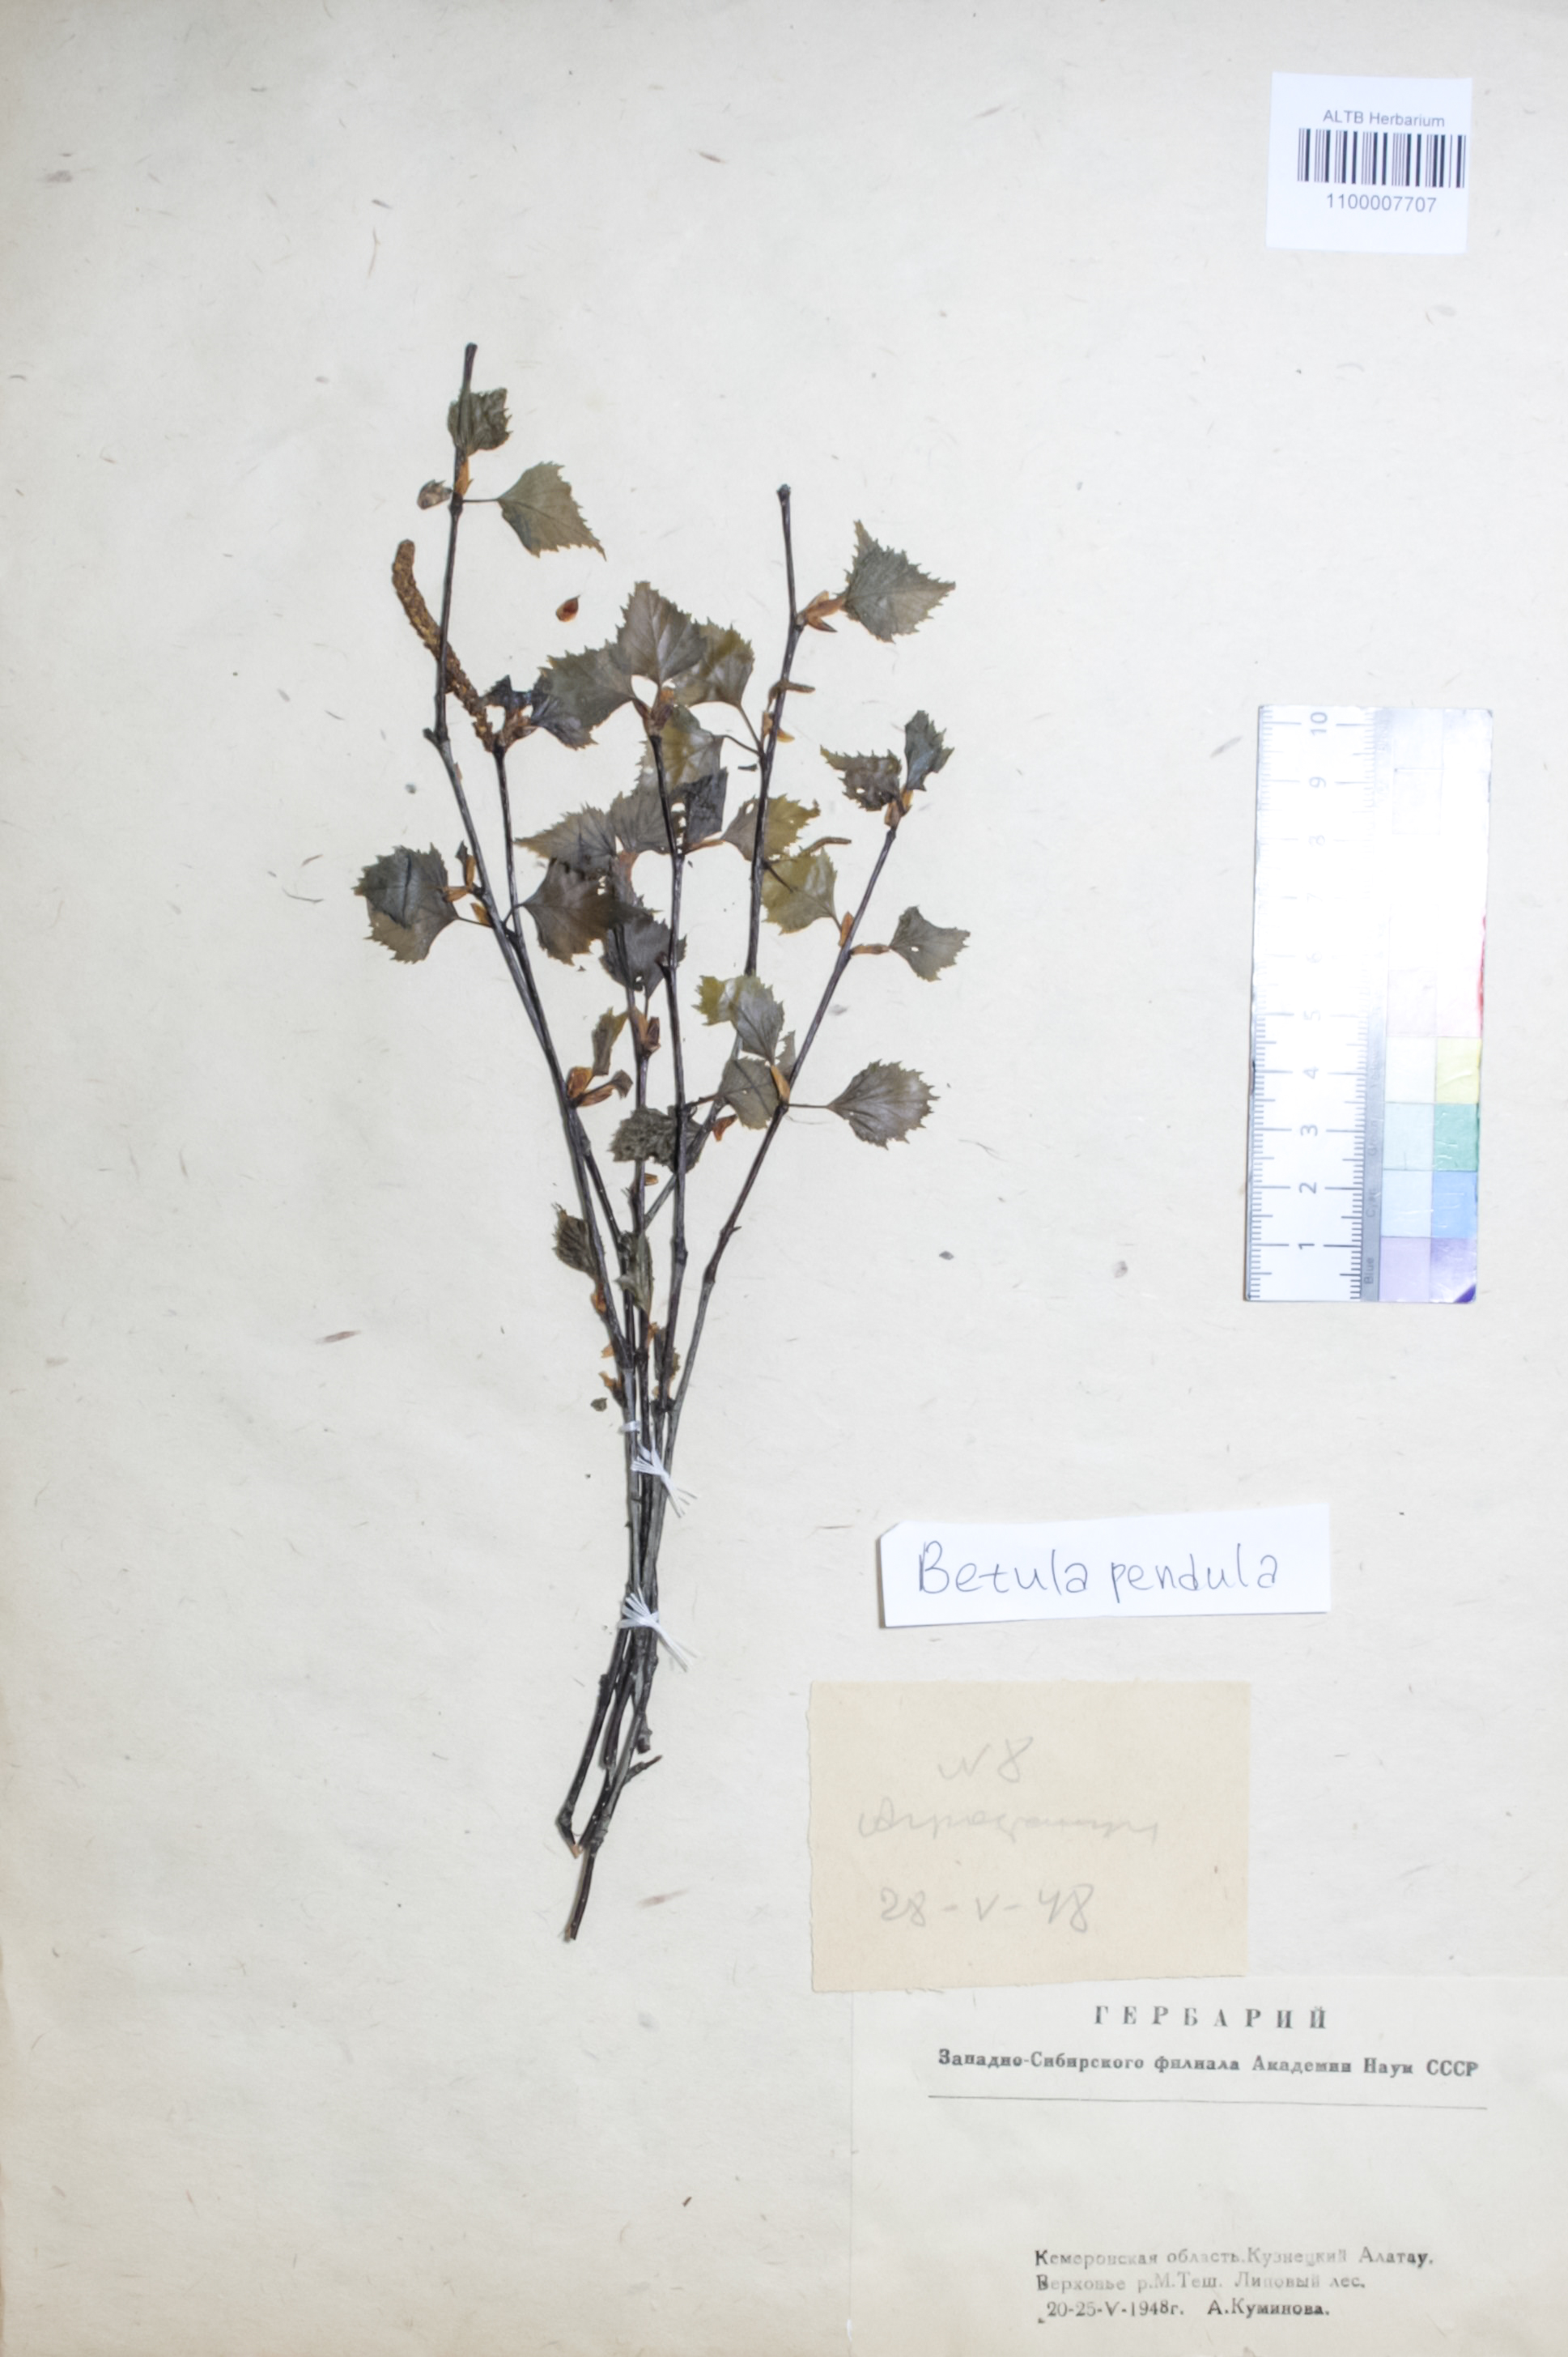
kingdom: Plantae
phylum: Tracheophyta
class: Magnoliopsida
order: Fagales
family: Betulaceae
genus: Betula
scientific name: Betula pendula
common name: Silver birch
